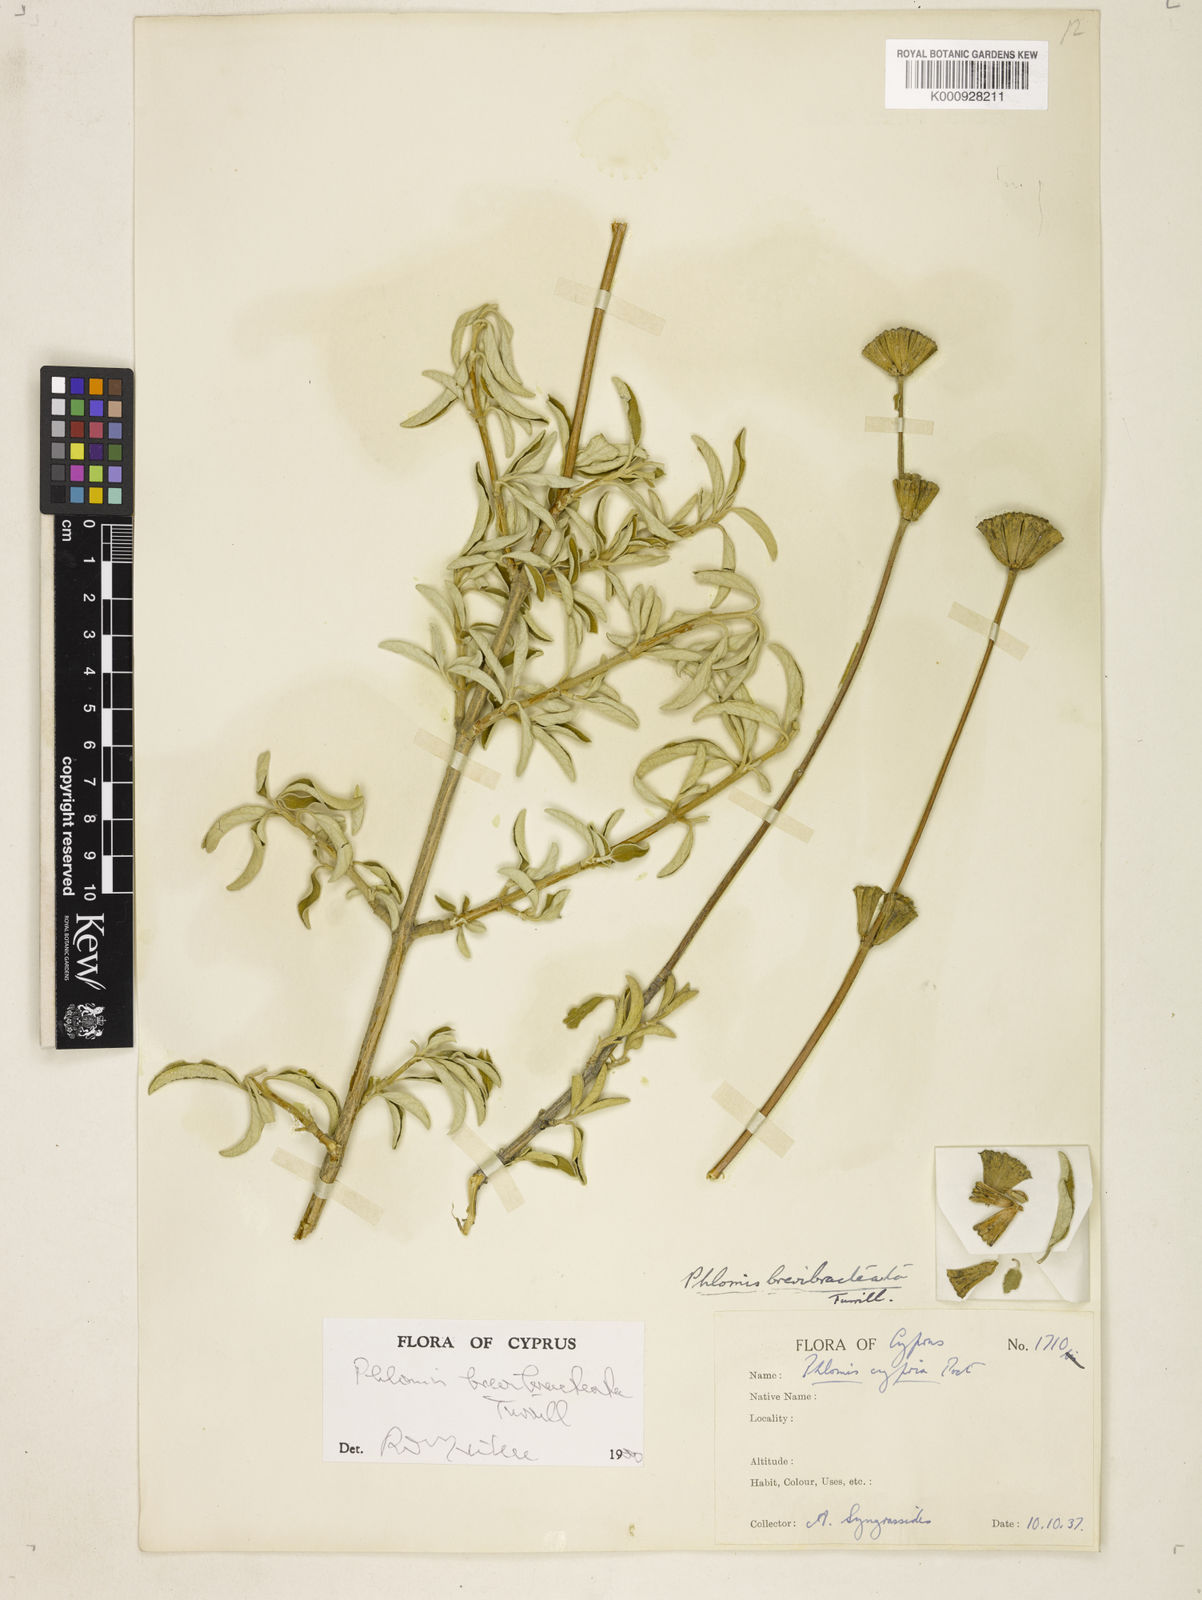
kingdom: Plantae
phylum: Tracheophyta
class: Magnoliopsida
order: Lamiales
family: Lamiaceae
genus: Phlomis
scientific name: Phlomis brevibracteata
